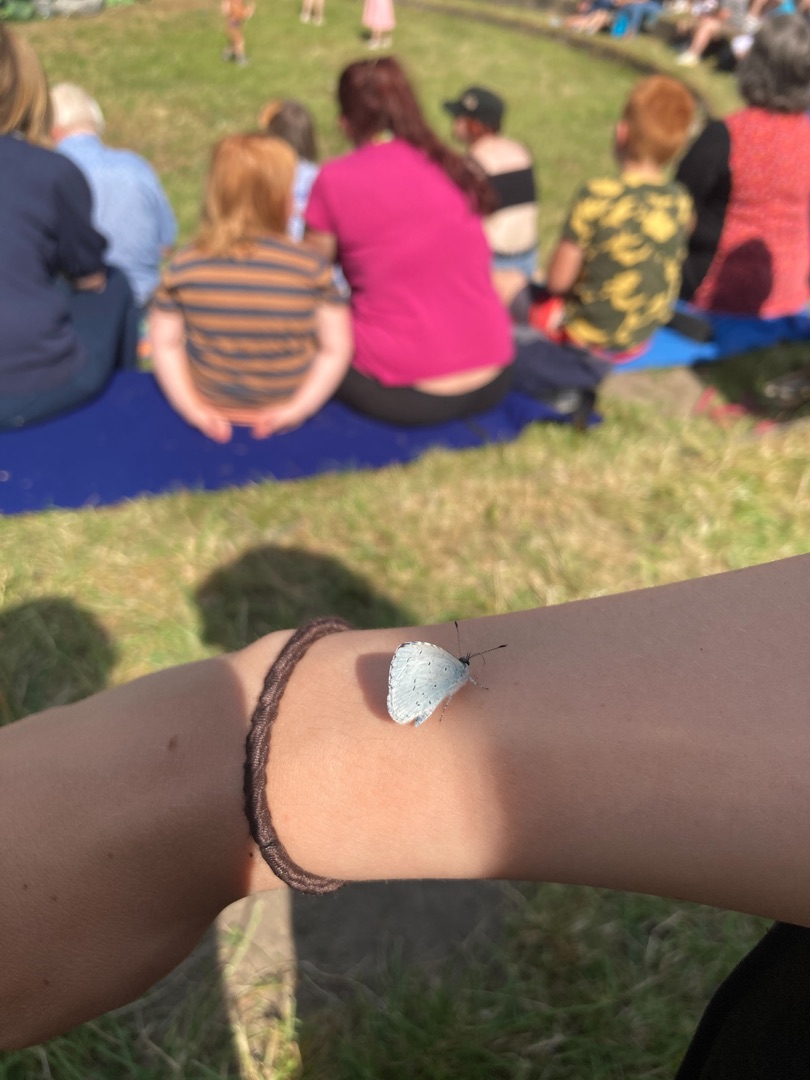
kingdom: Animalia
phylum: Arthropoda
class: Insecta
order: Lepidoptera
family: Lycaenidae
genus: Celastrina
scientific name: Celastrina argiolus
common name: Skovblåfugl
